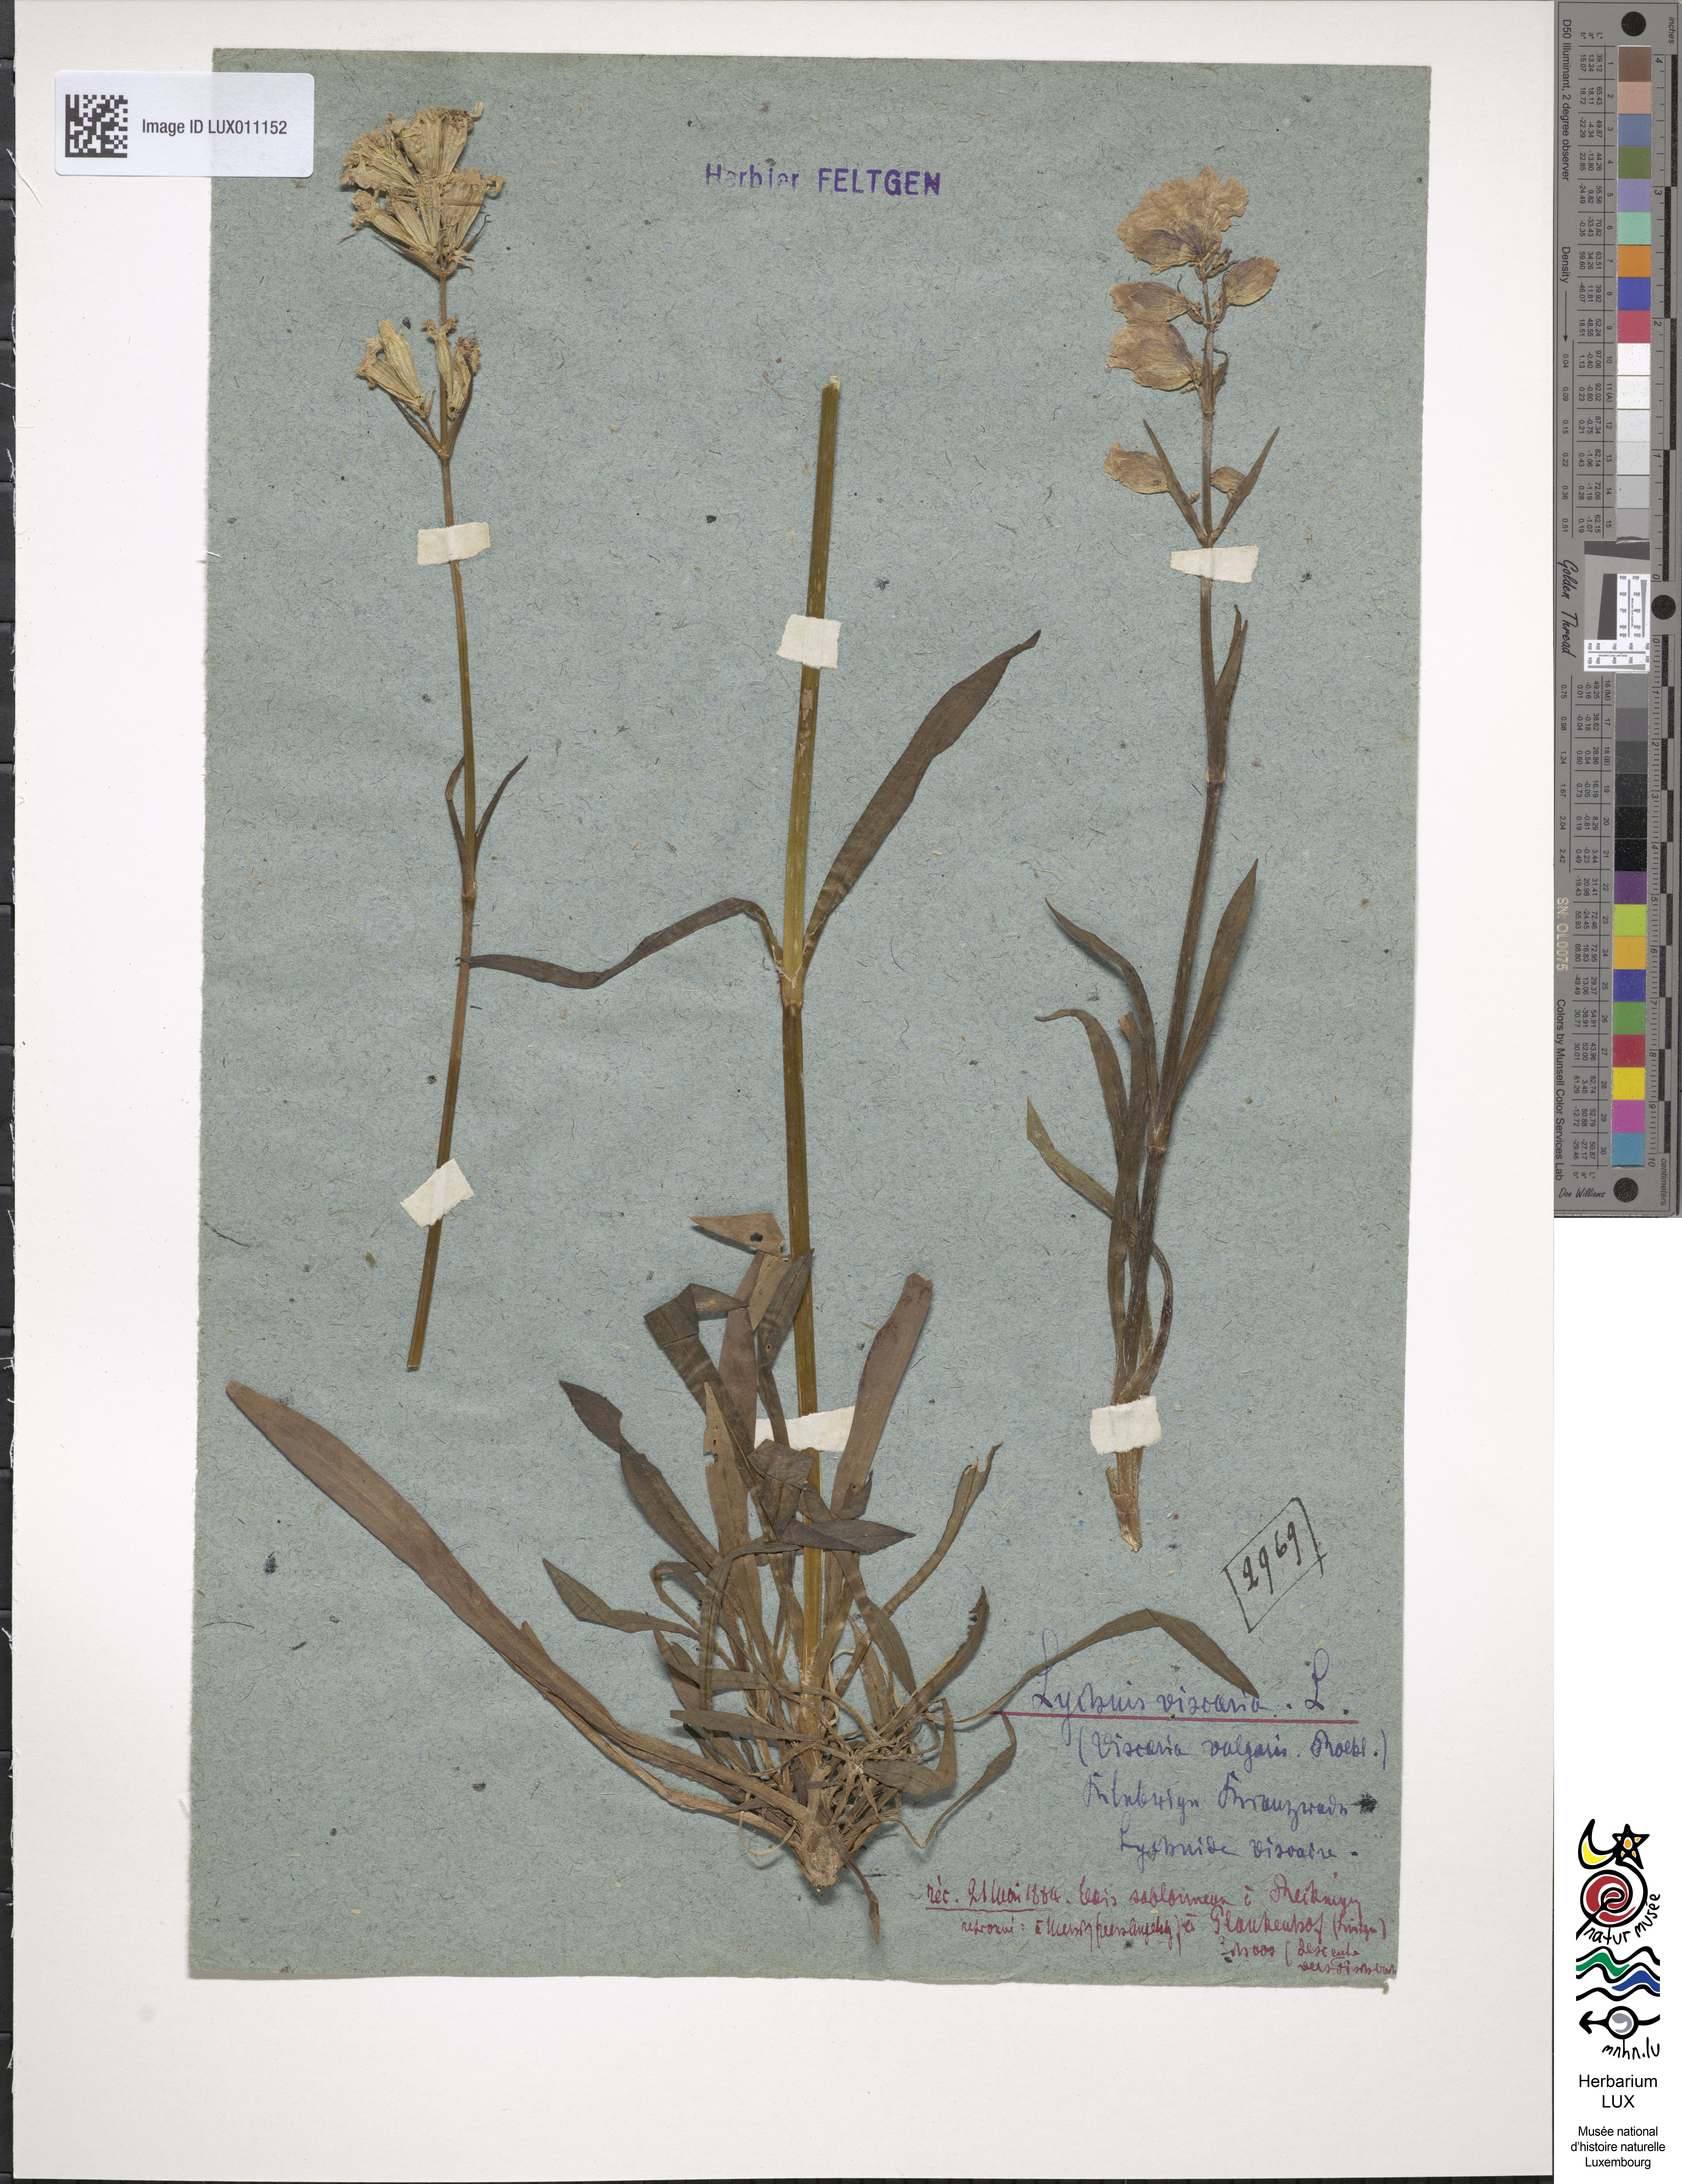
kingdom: Plantae
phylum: Tracheophyta
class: Magnoliopsida
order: Caryophyllales
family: Caryophyllaceae
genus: Viscaria
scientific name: Viscaria vulgaris
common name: Clammy campion
